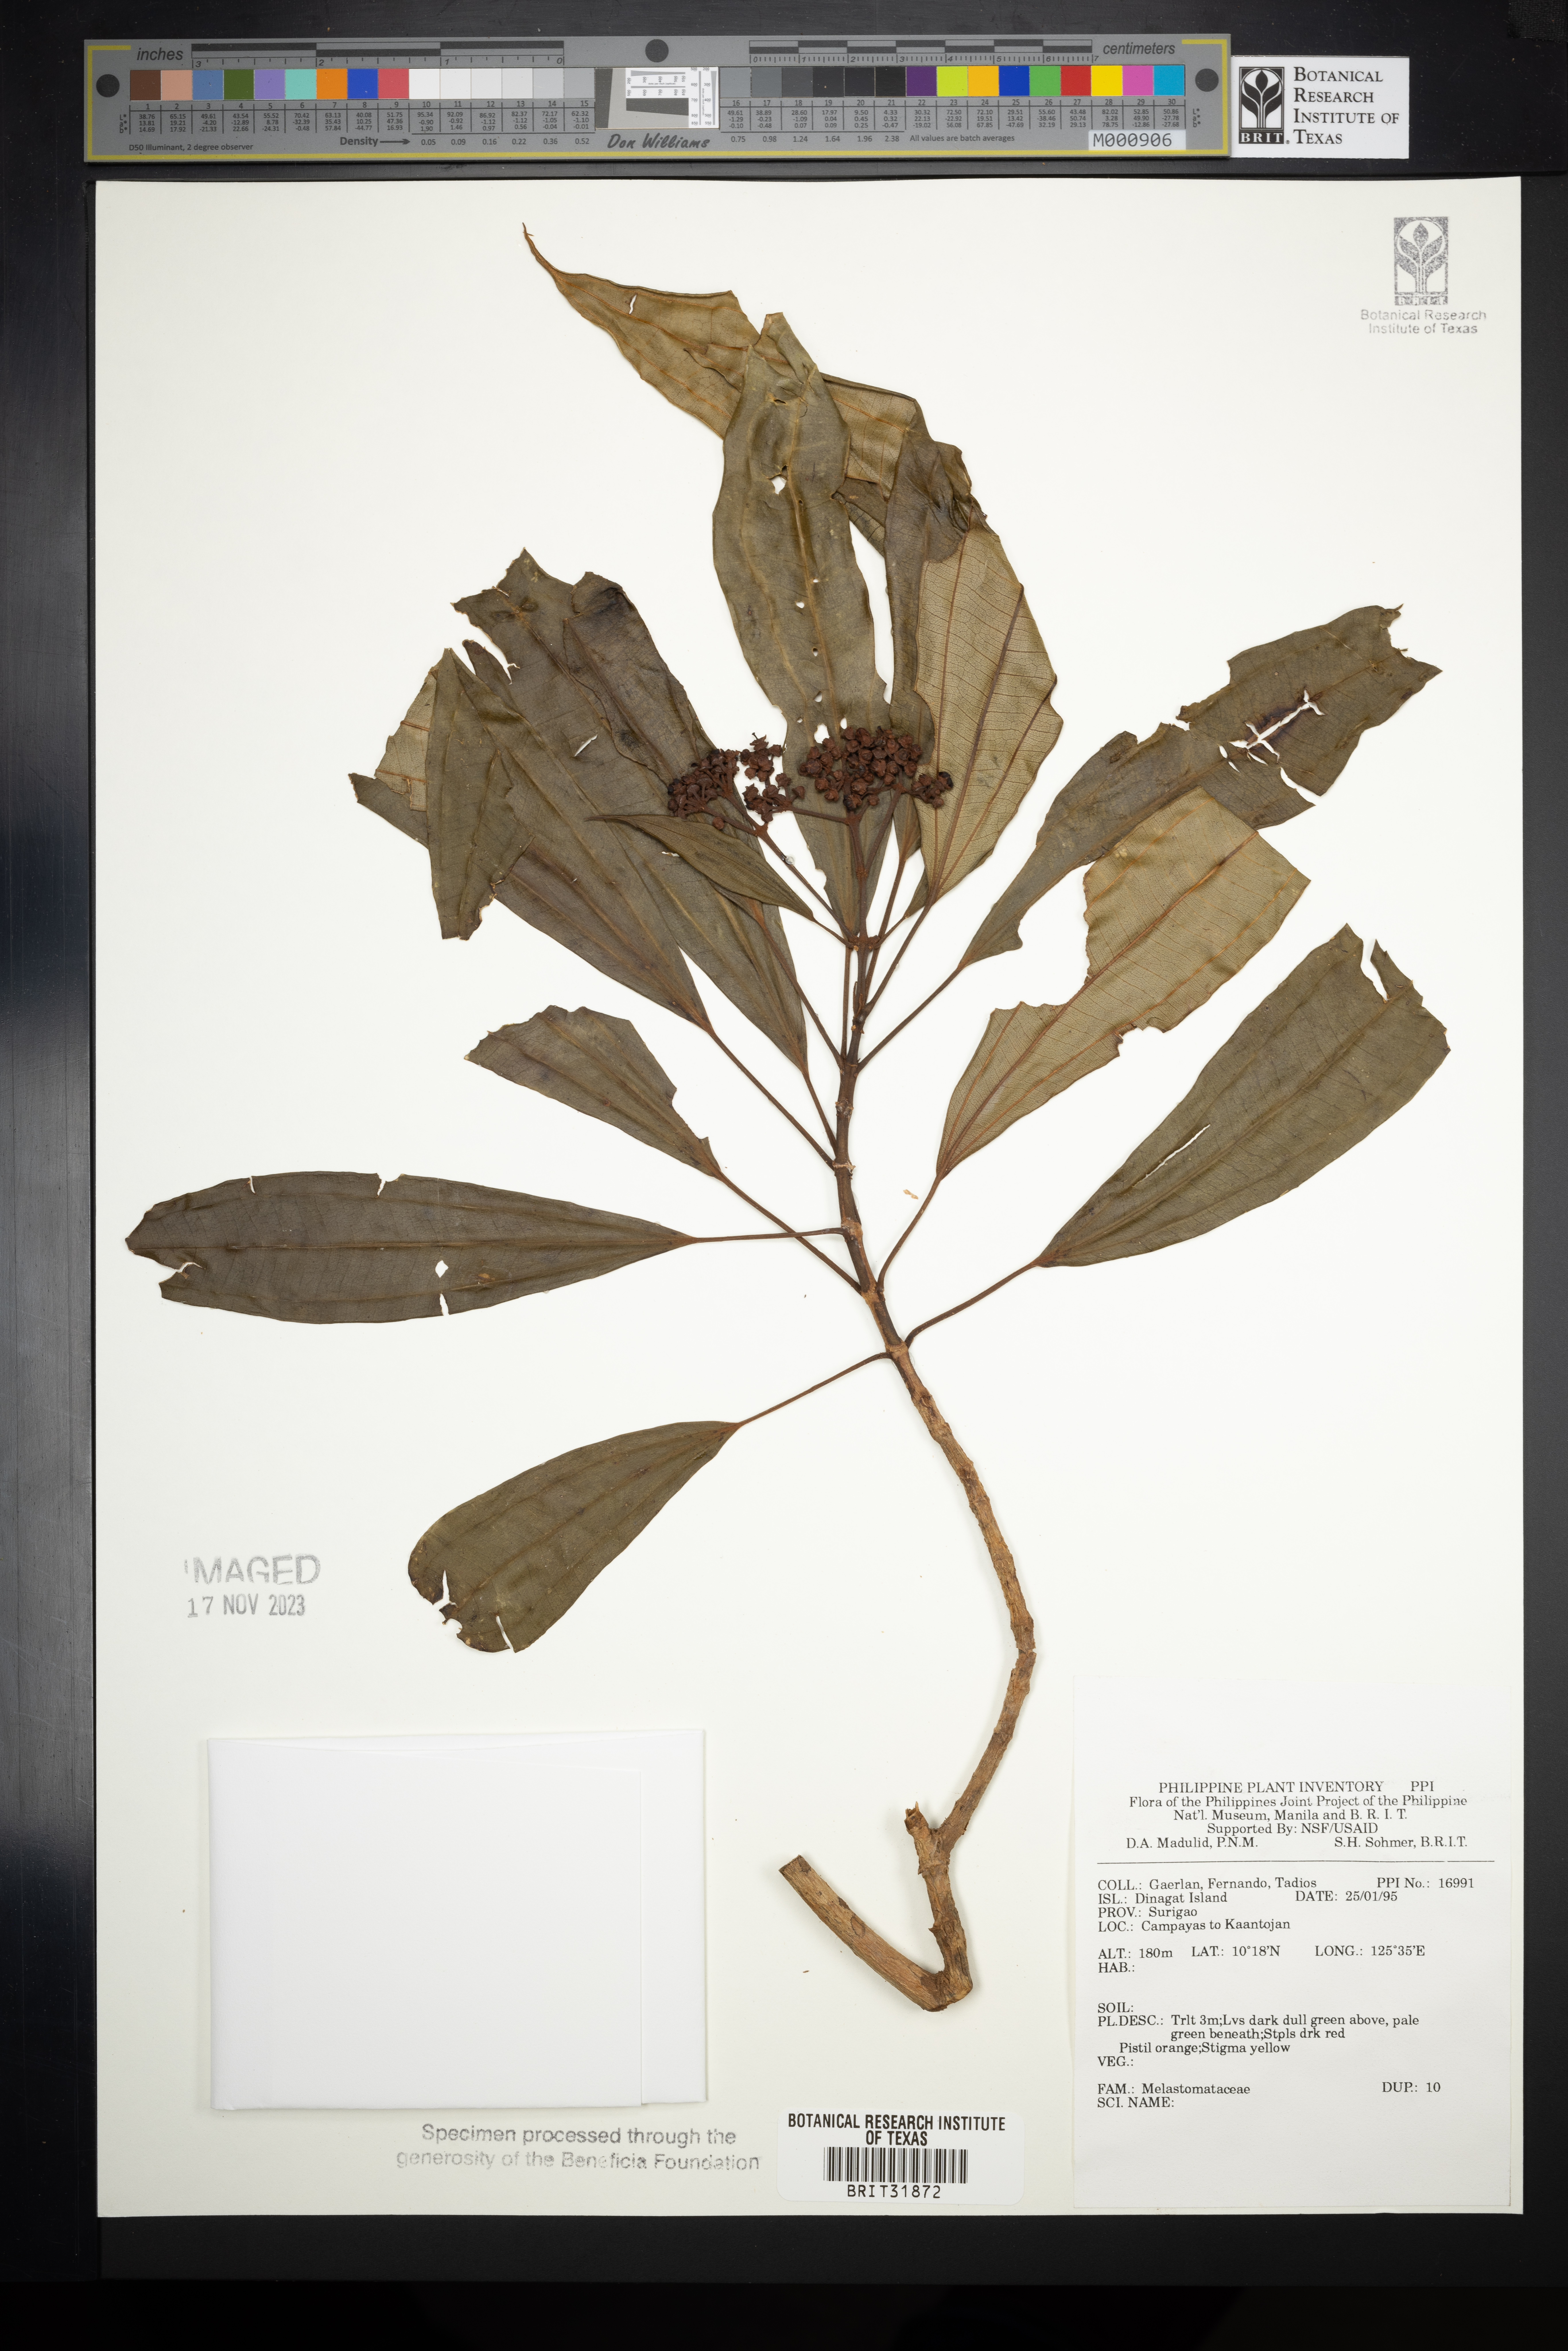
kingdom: Plantae
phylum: Tracheophyta
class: Magnoliopsida
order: Myrtales
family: Melastomataceae
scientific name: Melastomataceae
